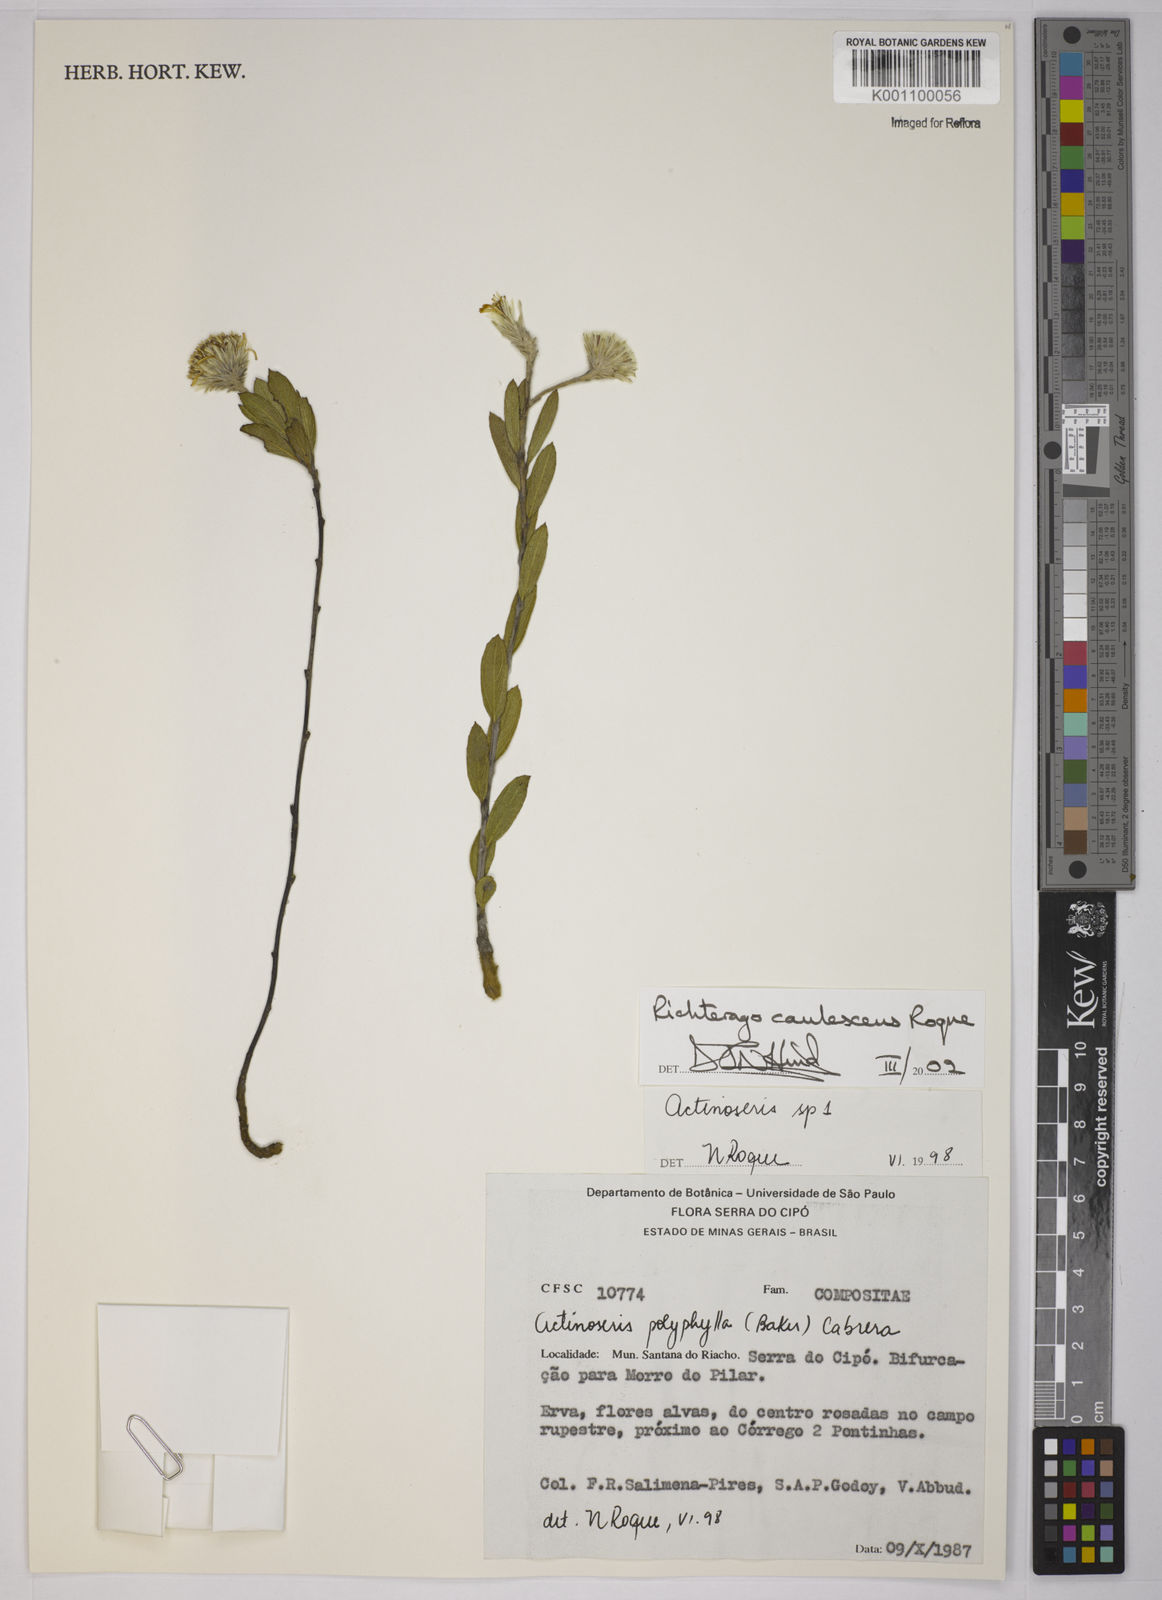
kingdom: Plantae
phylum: Tracheophyta
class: Magnoliopsida
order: Asterales
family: Asteraceae
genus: Richterago
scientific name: Richterago caulescens
